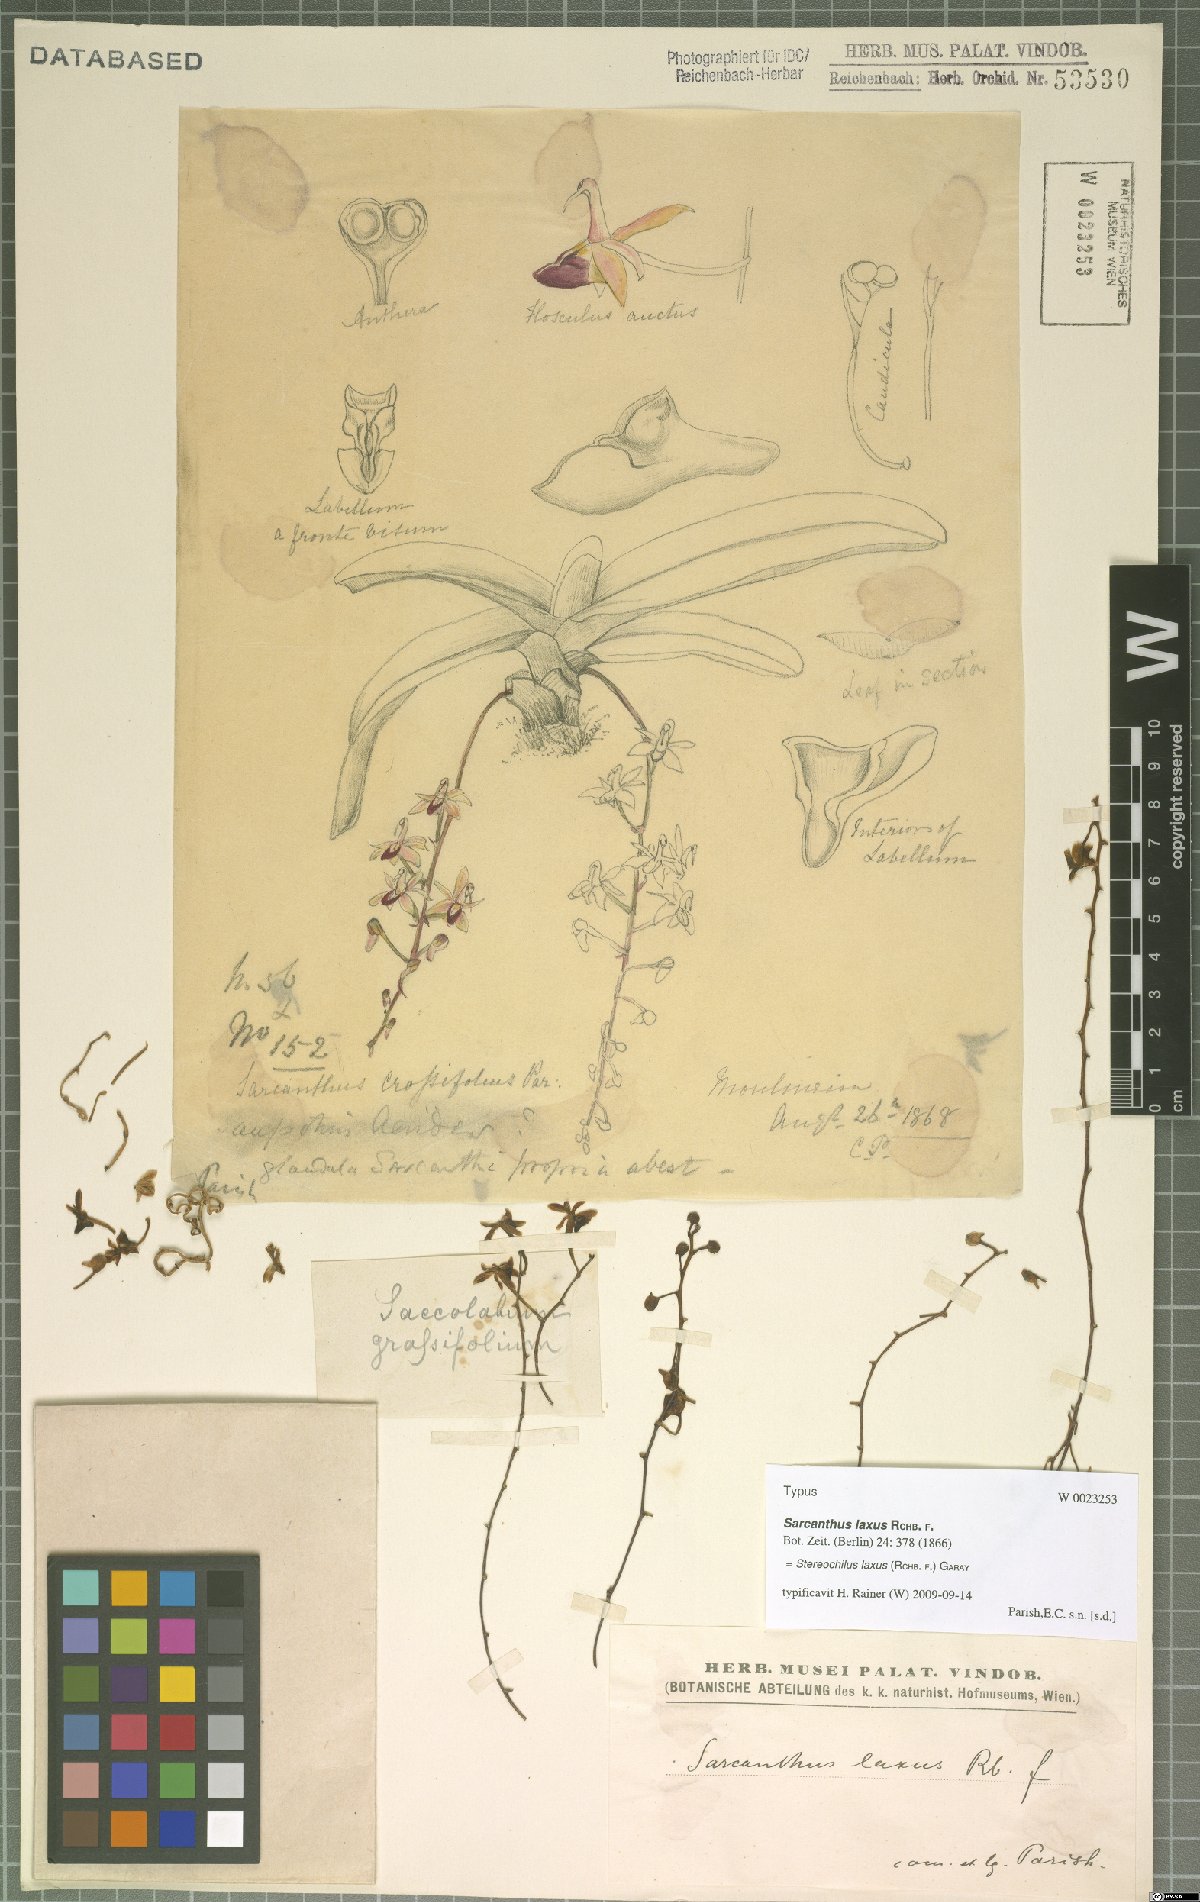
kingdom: Plantae
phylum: Tracheophyta
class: Liliopsida
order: Asparagales
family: Orchidaceae
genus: Stereochilus
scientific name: Stereochilus laxus
